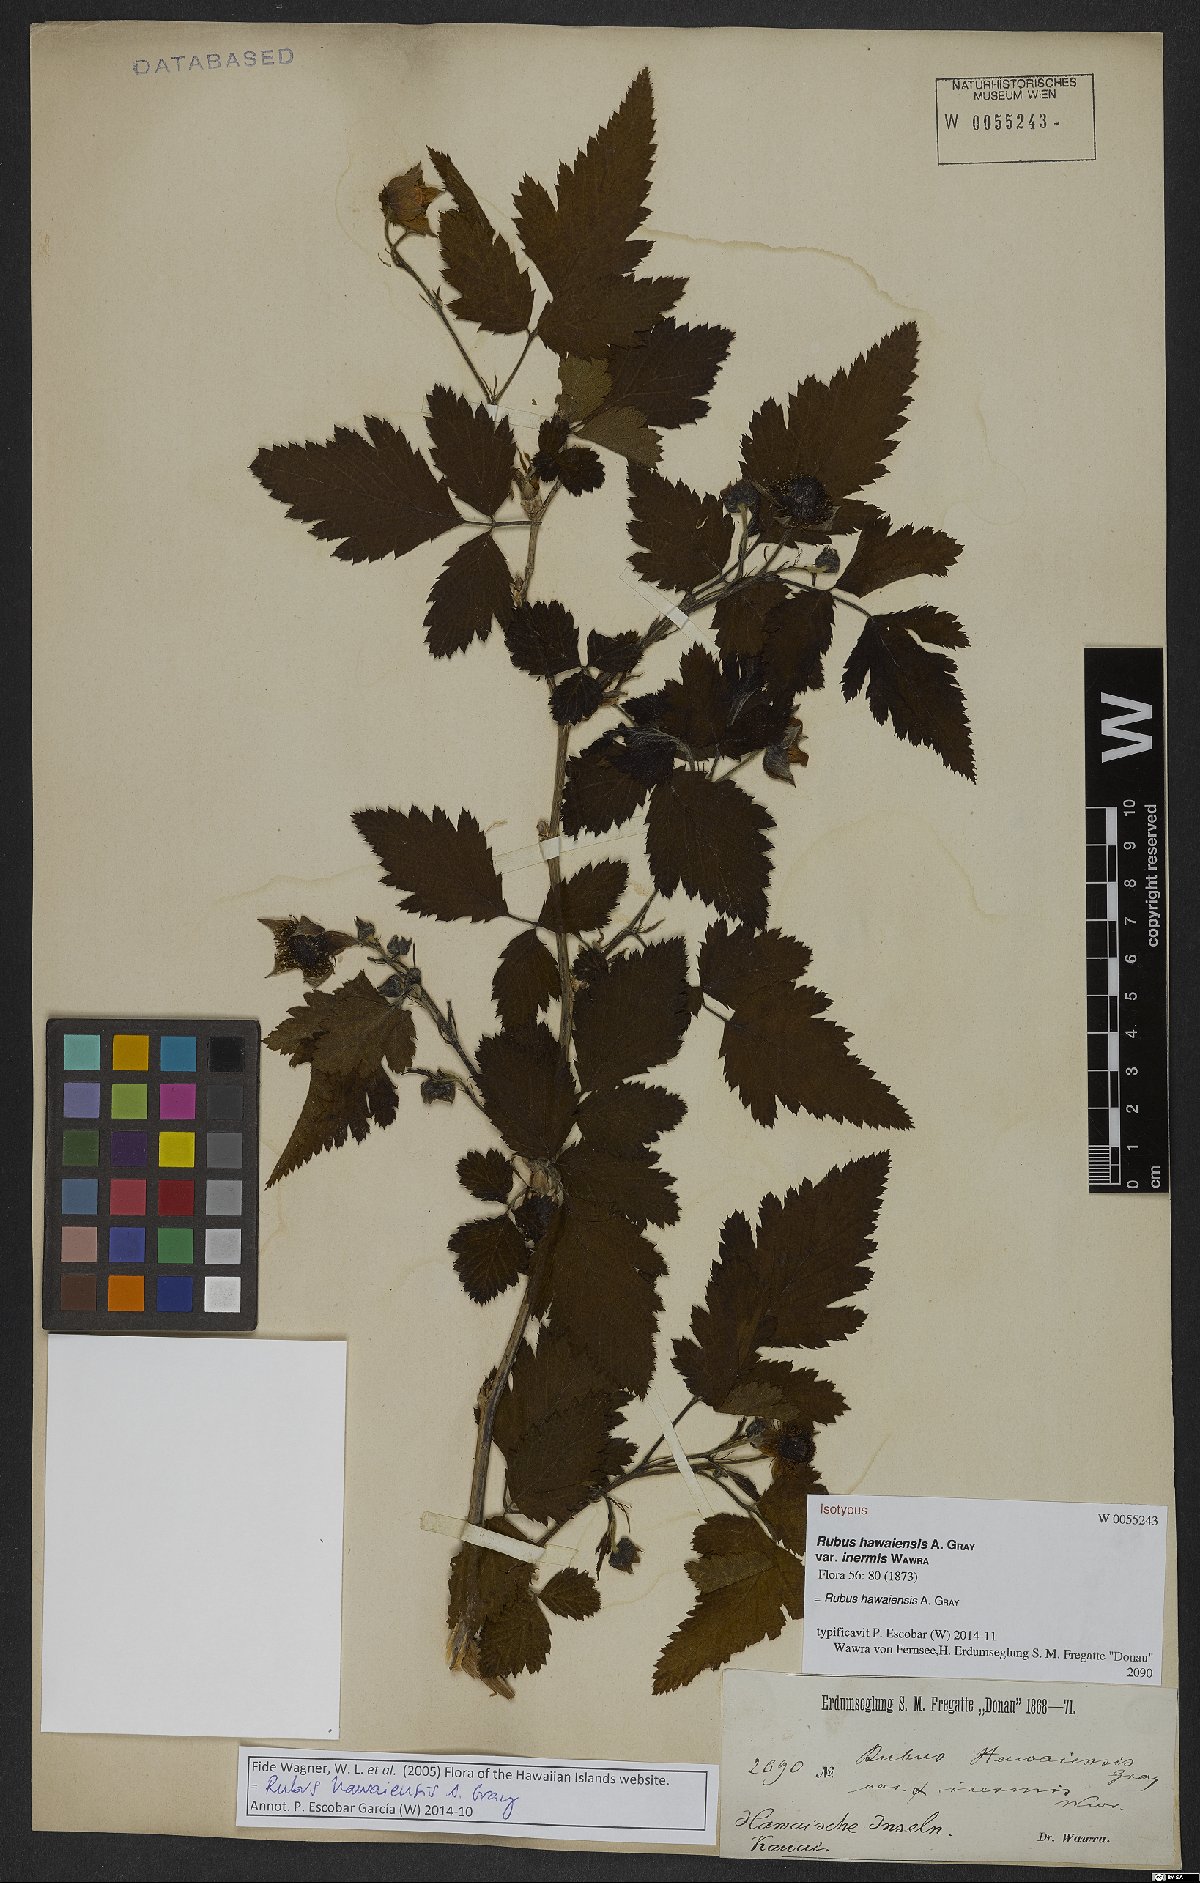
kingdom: Plantae
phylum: Tracheophyta
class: Magnoliopsida
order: Rosales
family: Rosaceae
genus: Rubus
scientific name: Rubus hawaiensis
